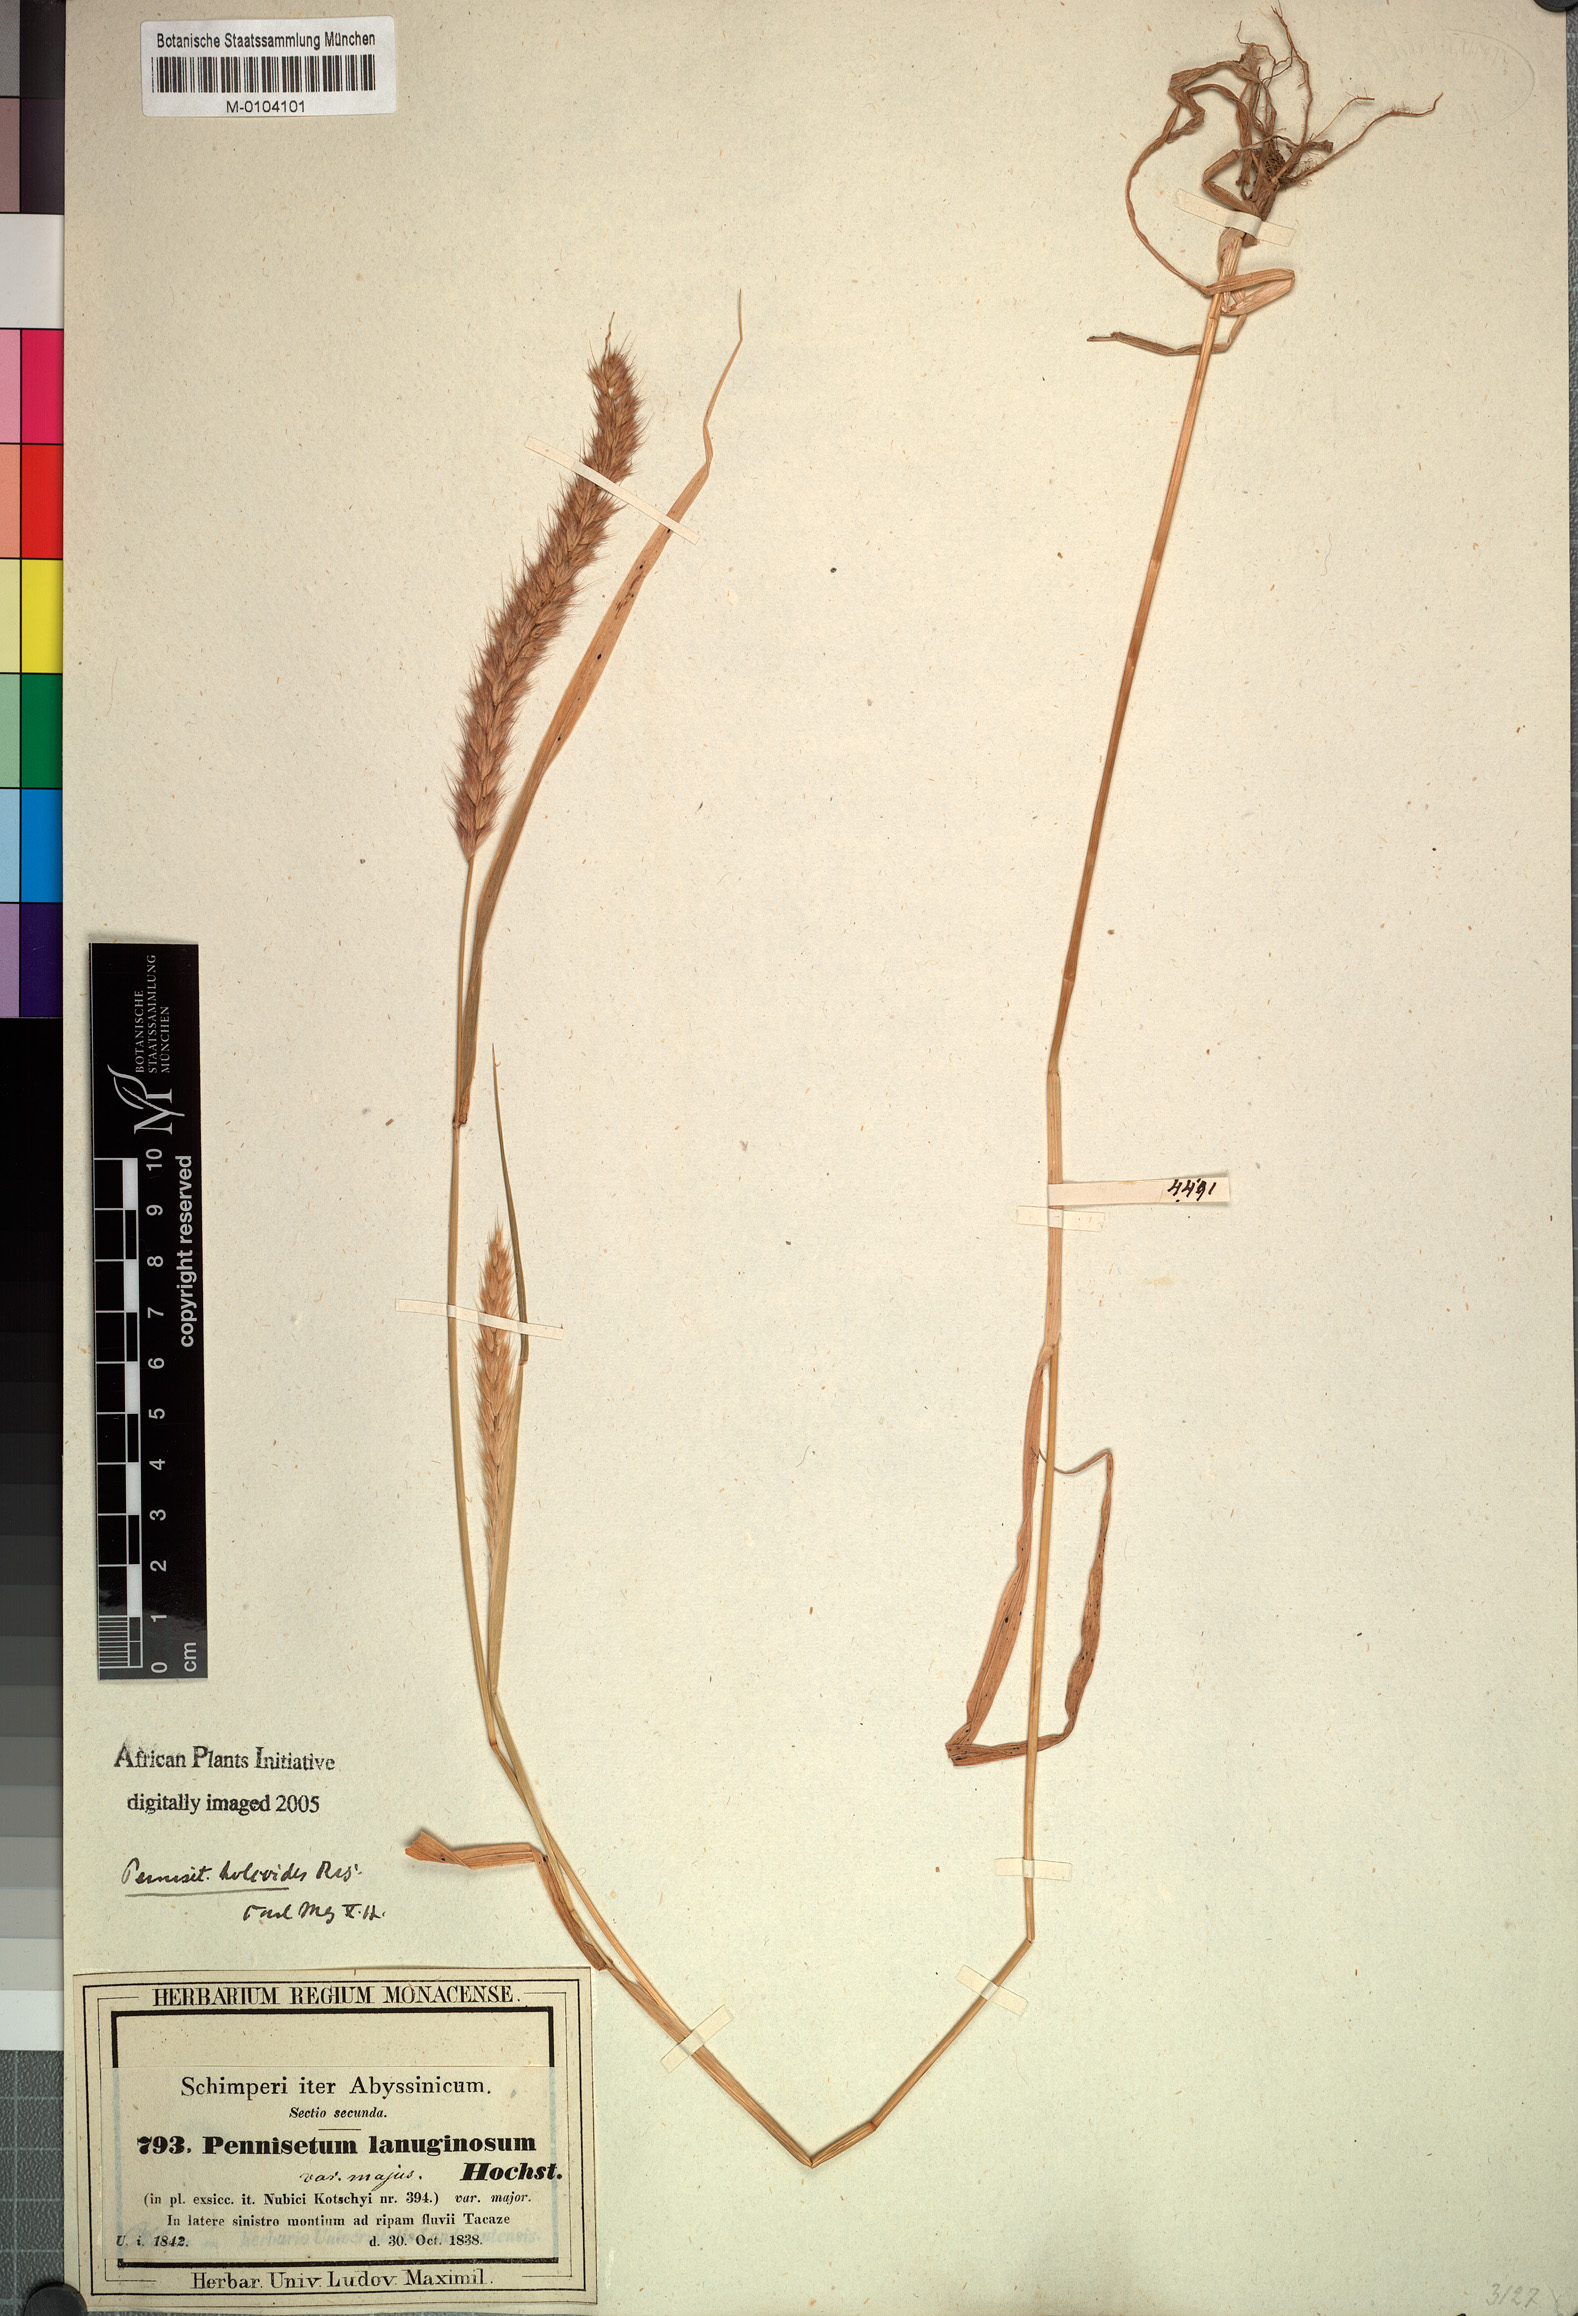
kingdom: Plantae
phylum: Tracheophyta
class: Liliopsida
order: Poales
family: Poaceae
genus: Cenchrus
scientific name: Cenchrus pedicellatus
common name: Hairy fountain grass
